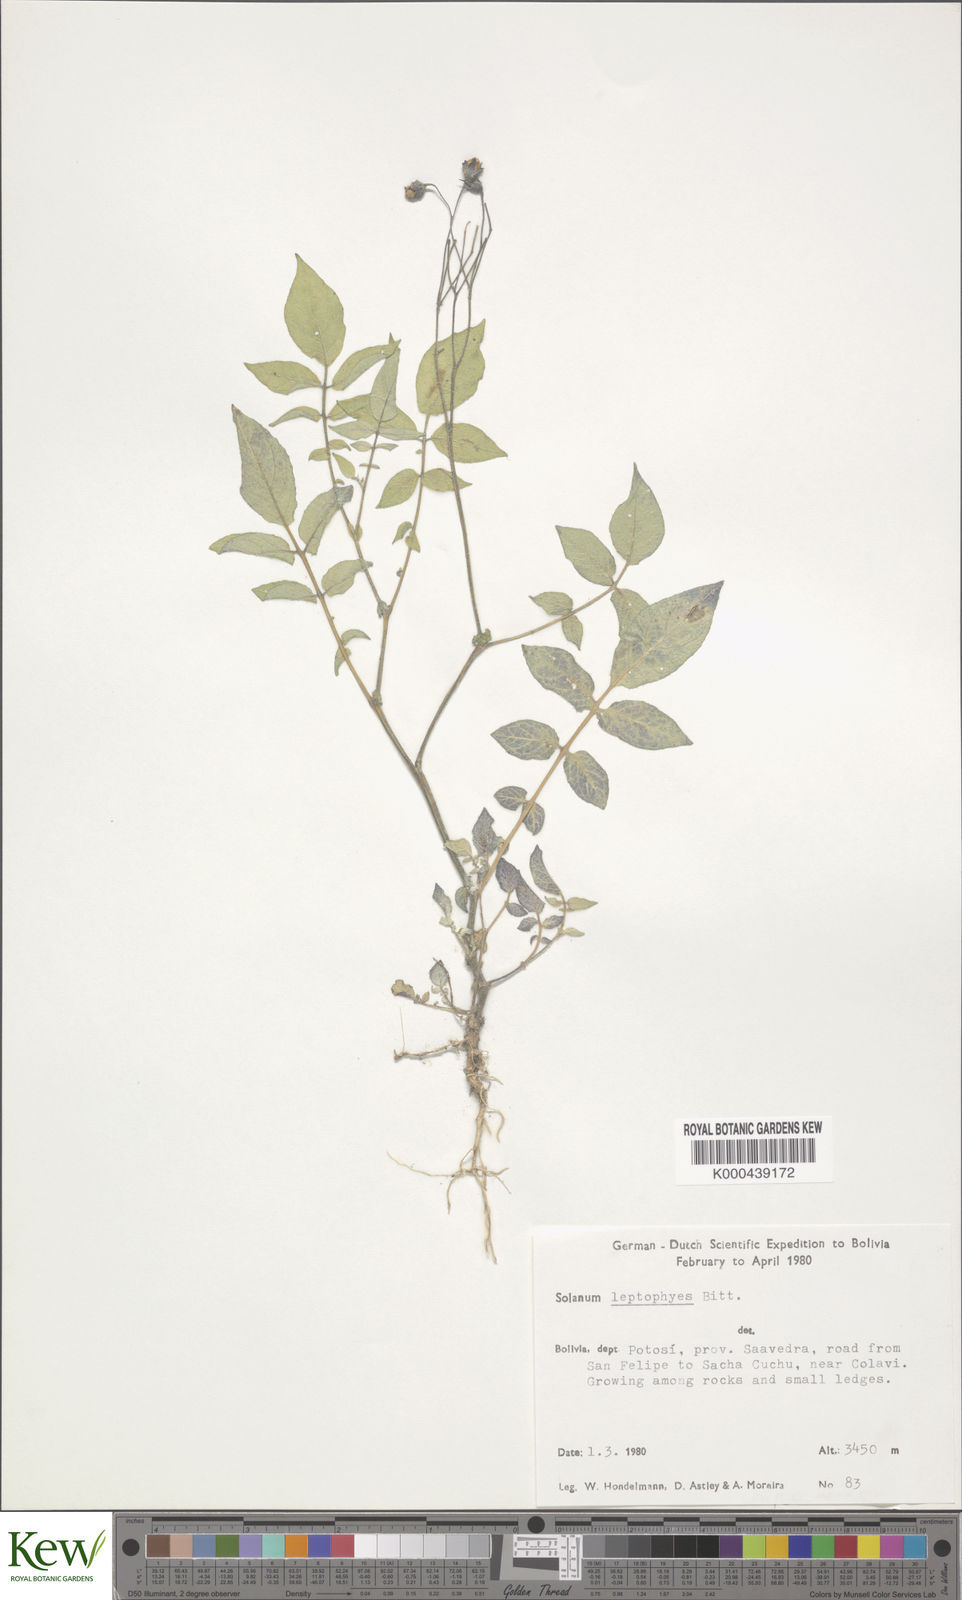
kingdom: Plantae
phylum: Tracheophyta
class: Magnoliopsida
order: Solanales
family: Solanaceae
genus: Solanum
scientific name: Solanum brevicaule
